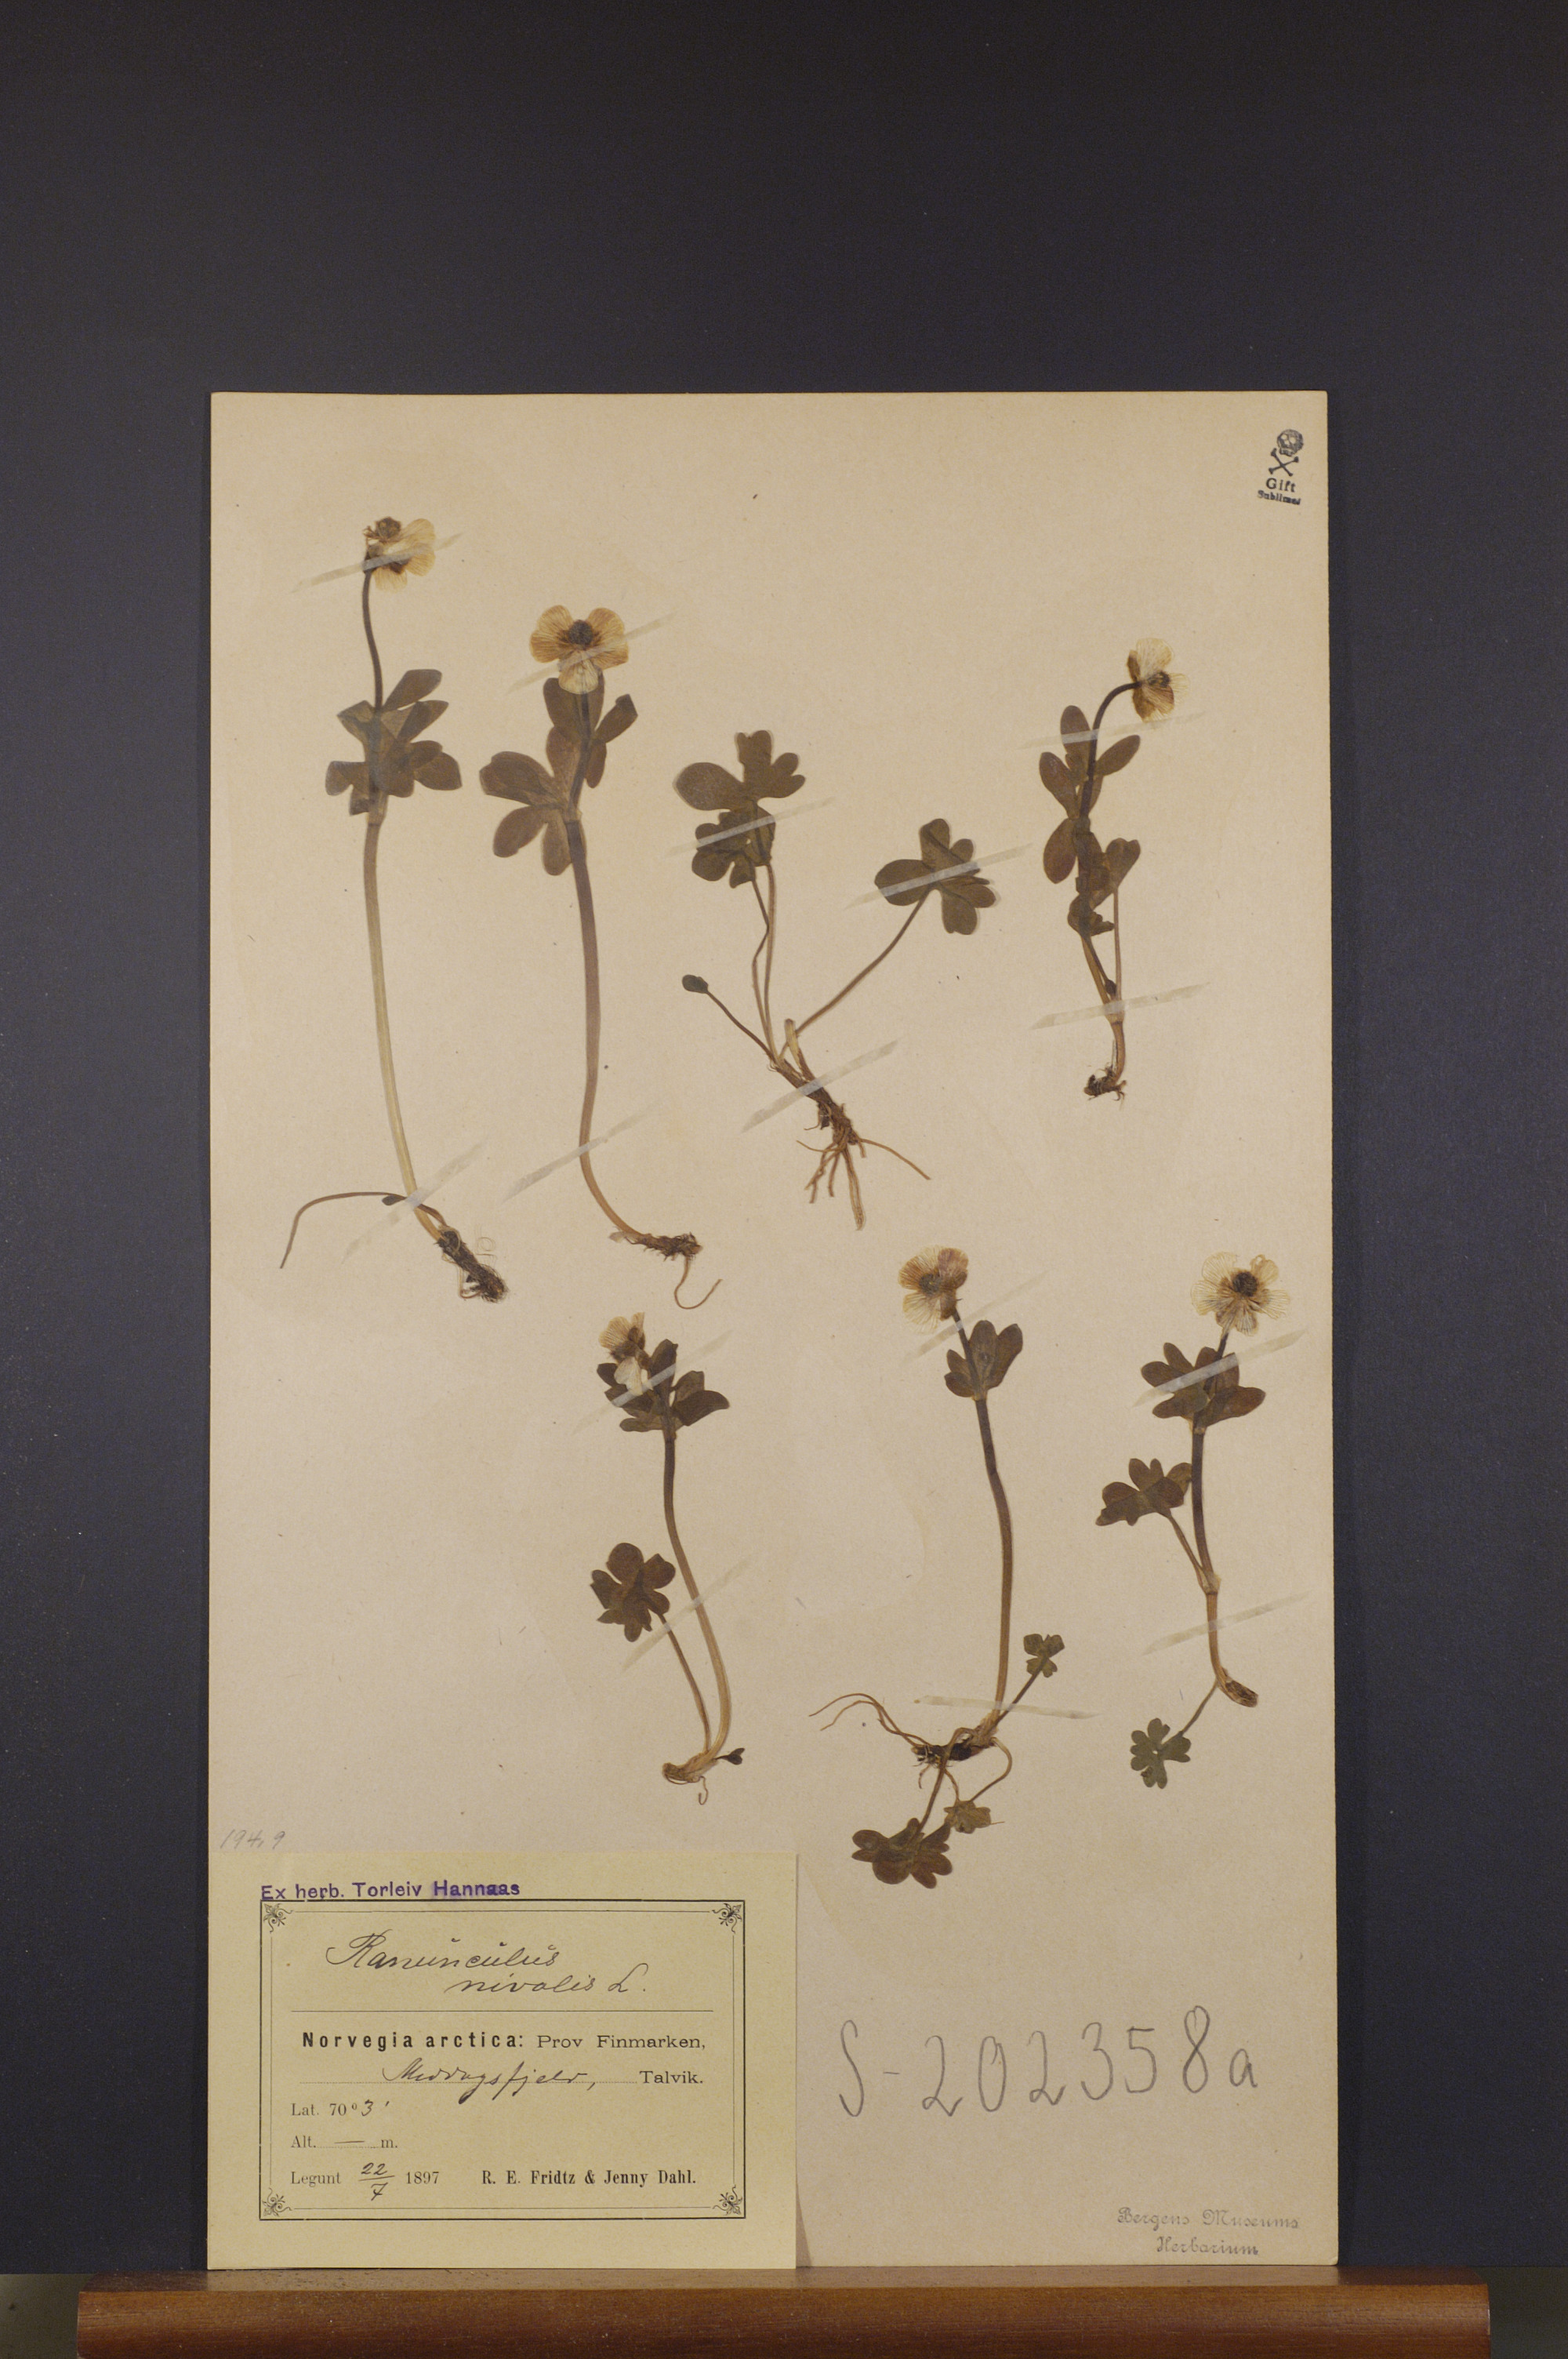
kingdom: Plantae
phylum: Tracheophyta
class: Magnoliopsida
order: Ranunculales
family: Ranunculaceae
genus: Ranunculus
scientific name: Ranunculus nivalis
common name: Snow buttercup
